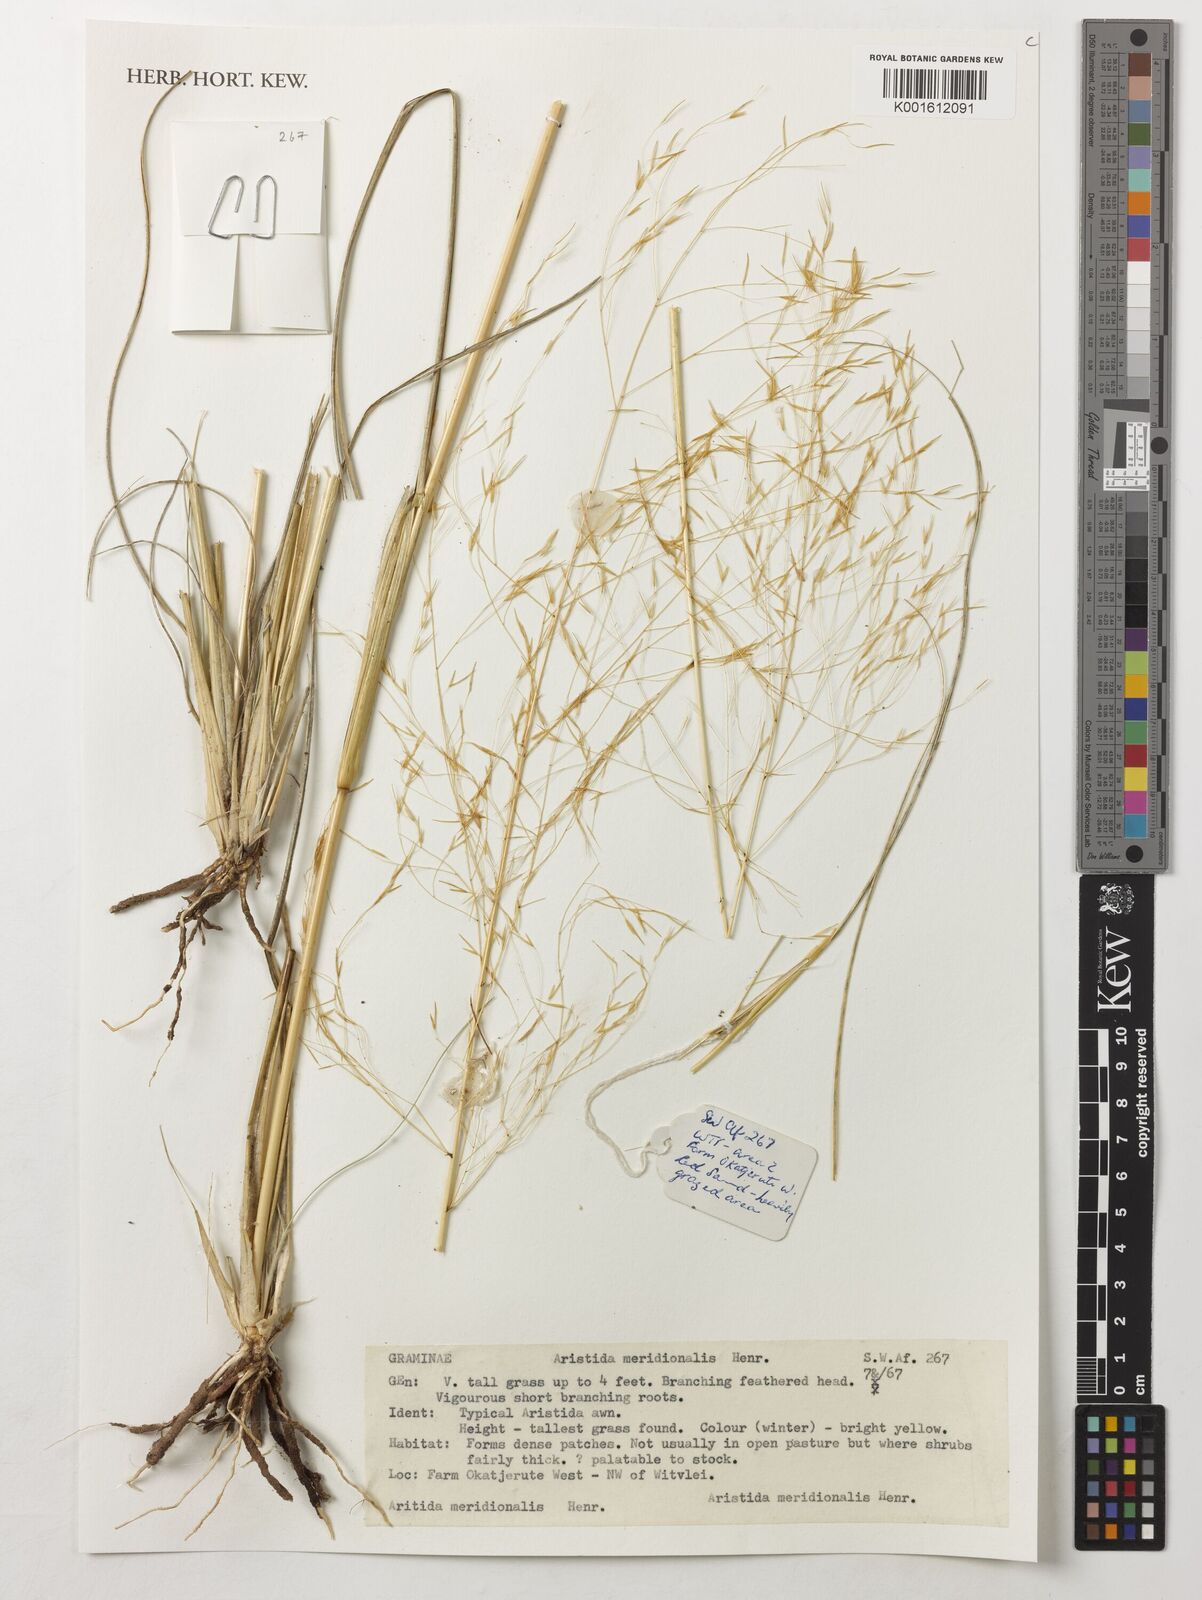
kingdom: Plantae
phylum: Tracheophyta
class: Liliopsida
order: Poales
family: Poaceae
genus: Aristida
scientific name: Aristida meridionalis
